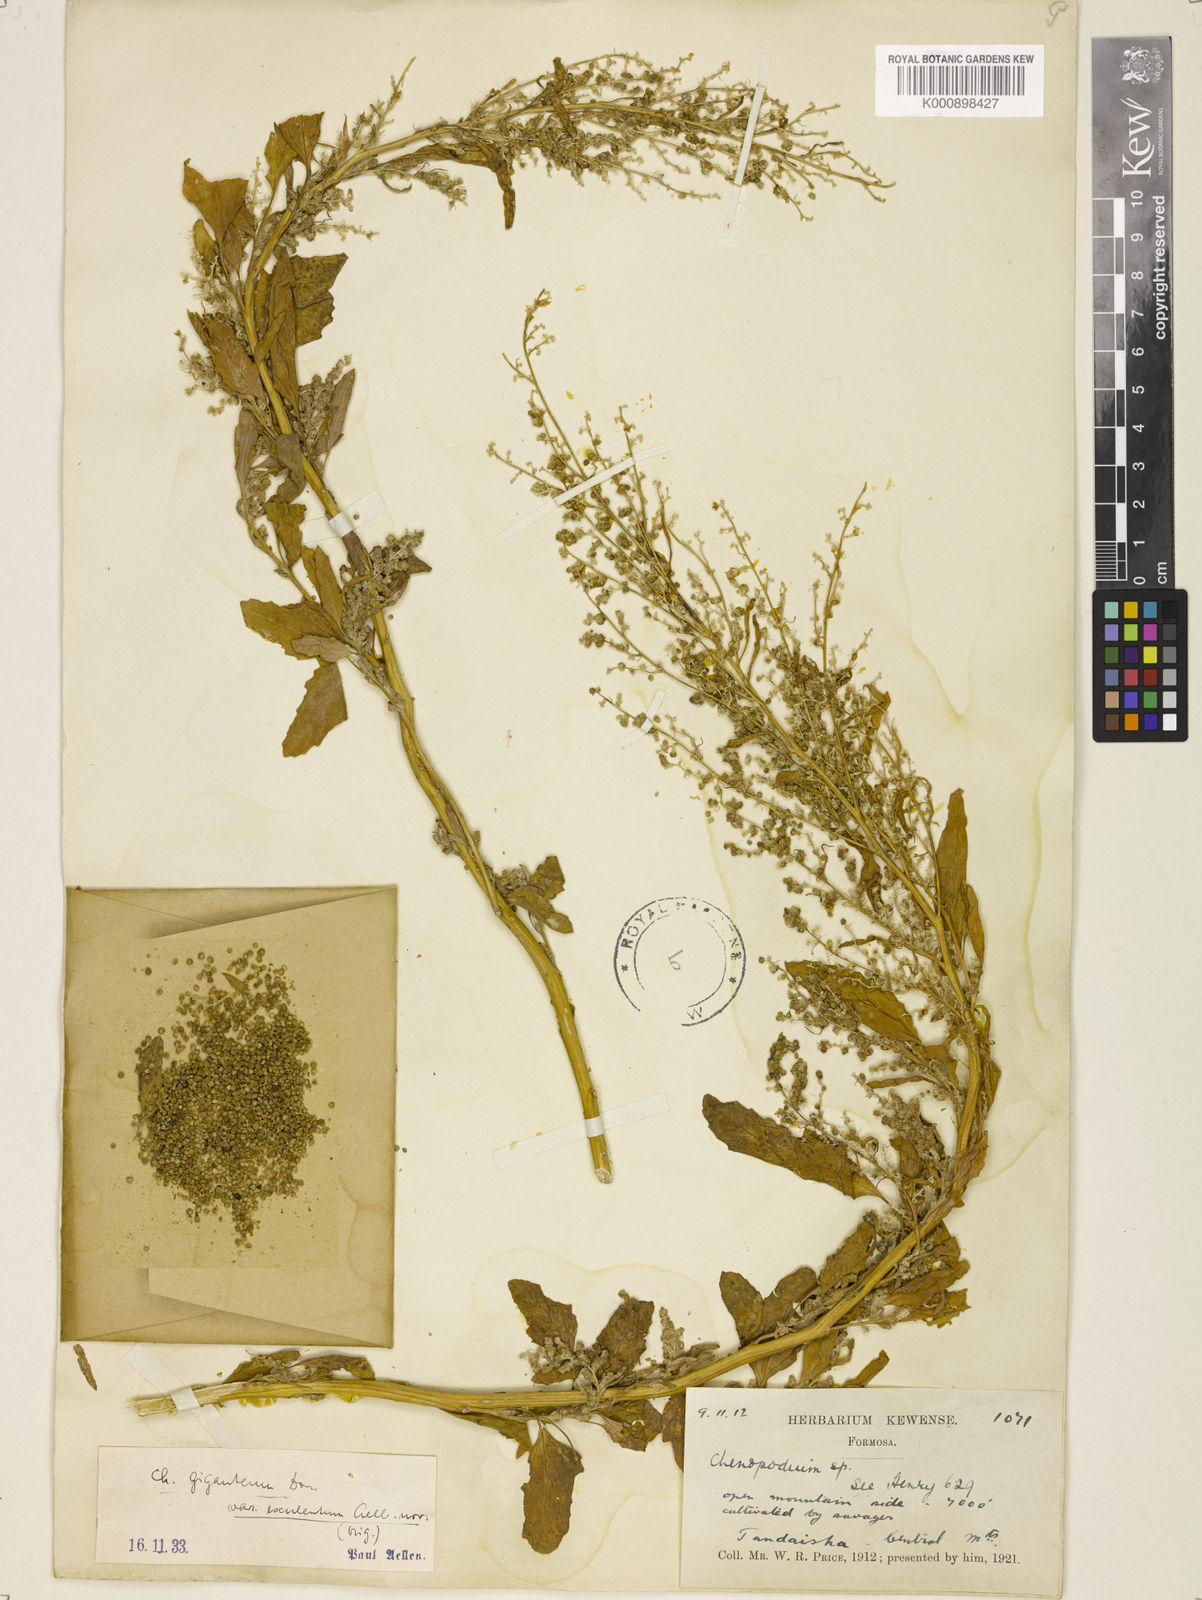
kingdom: Plantae
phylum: Tracheophyta
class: Magnoliopsida
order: Caryophyllales
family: Amaranthaceae
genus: Chenopodium
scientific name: Chenopodium giganteum
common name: Magentaspreen
